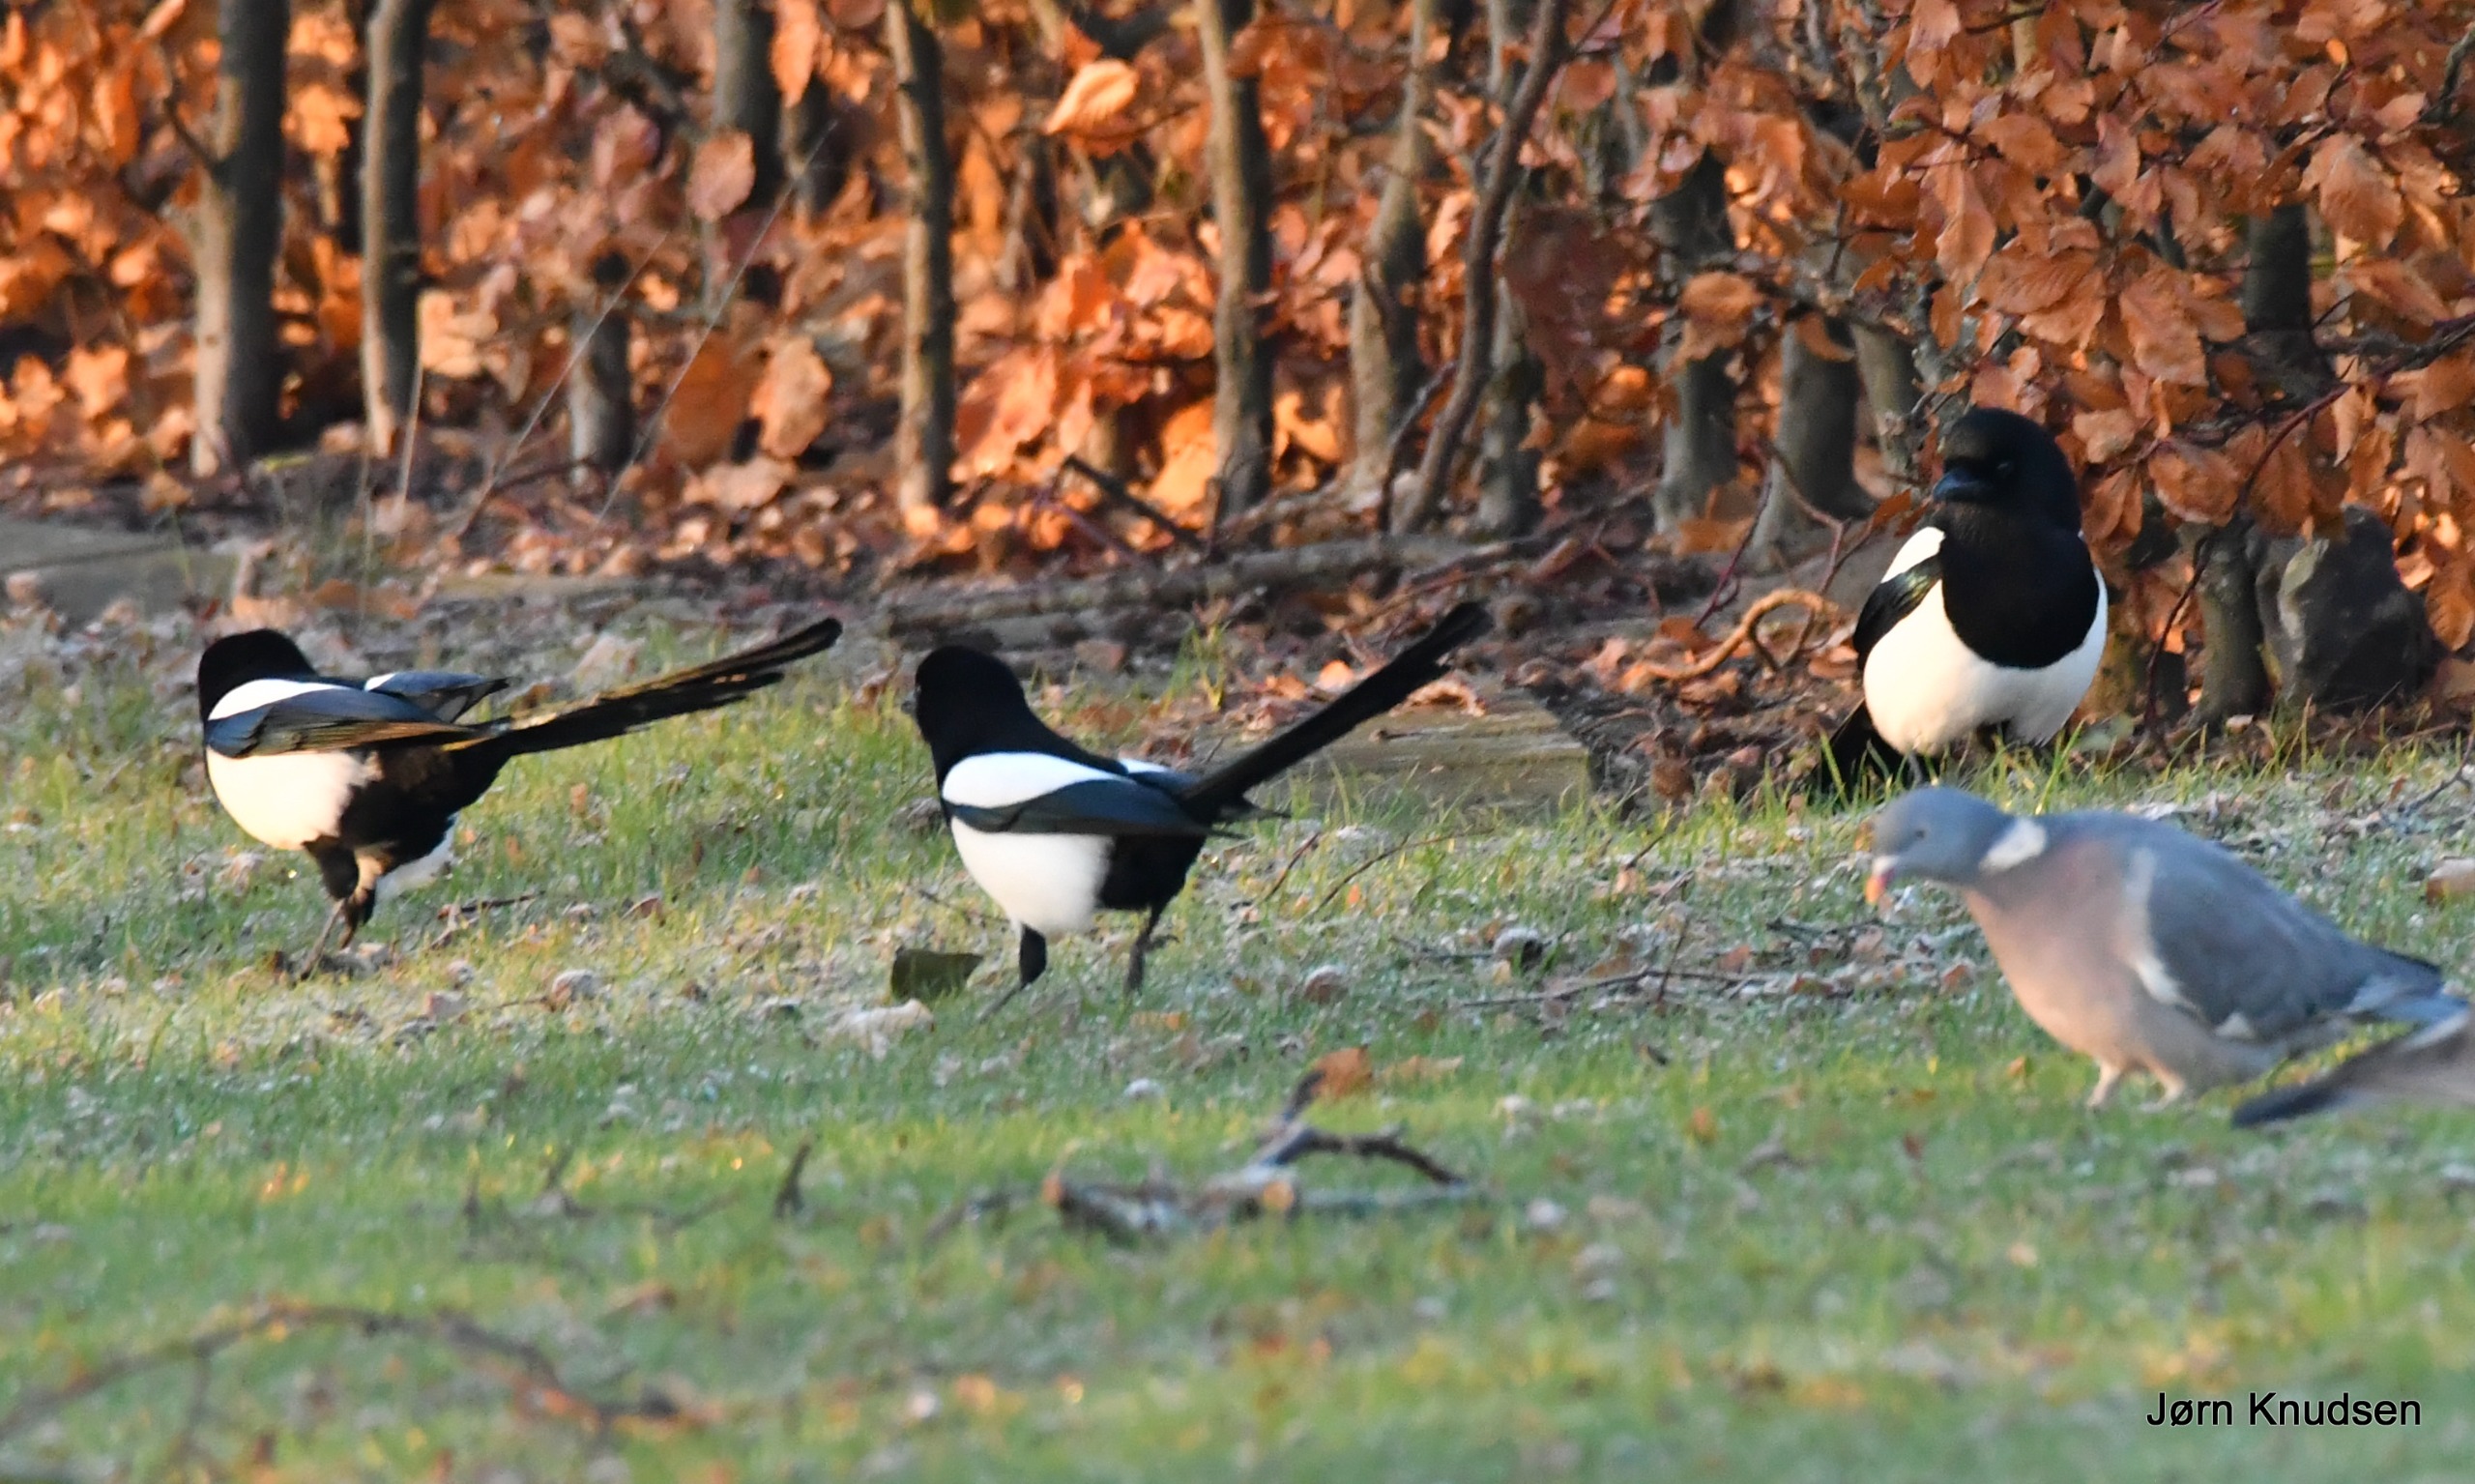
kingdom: Animalia
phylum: Chordata
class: Aves
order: Passeriformes
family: Corvidae
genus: Pica
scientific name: Pica pica
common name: Husskade
